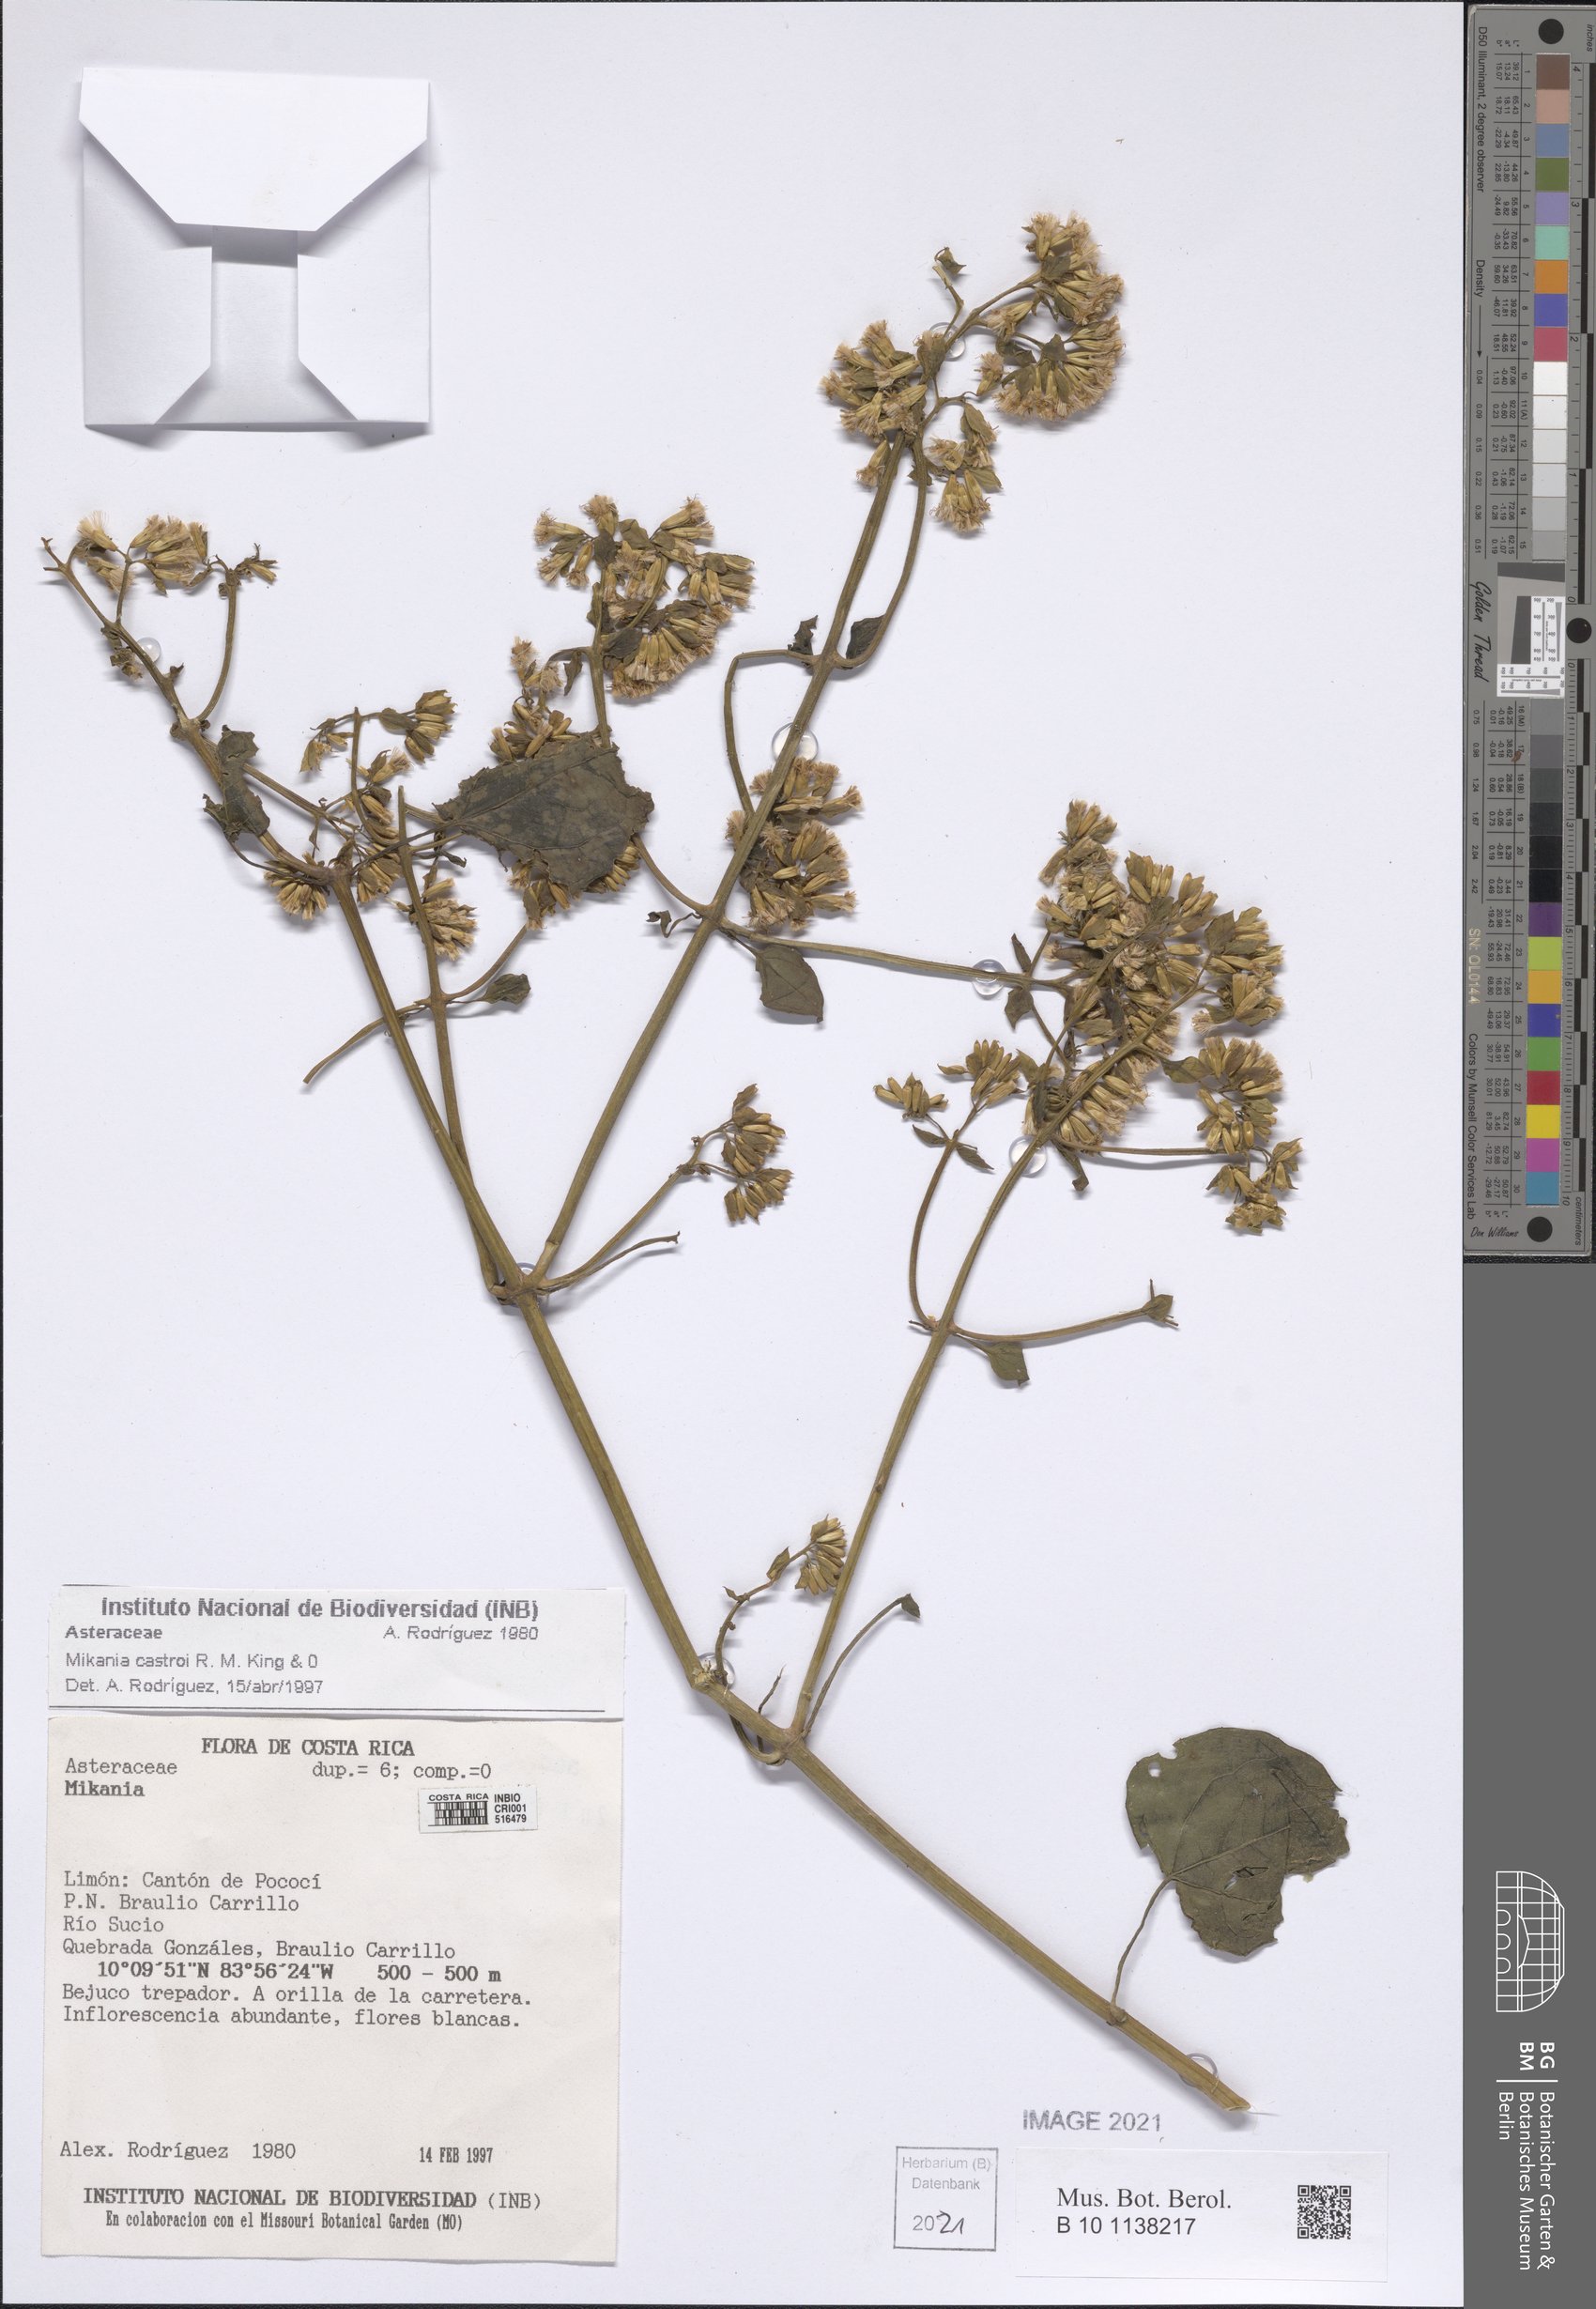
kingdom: Plantae
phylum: Tracheophyta
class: Magnoliopsida
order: Asterales
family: Asteraceae
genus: Mikania
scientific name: Mikania castroi
